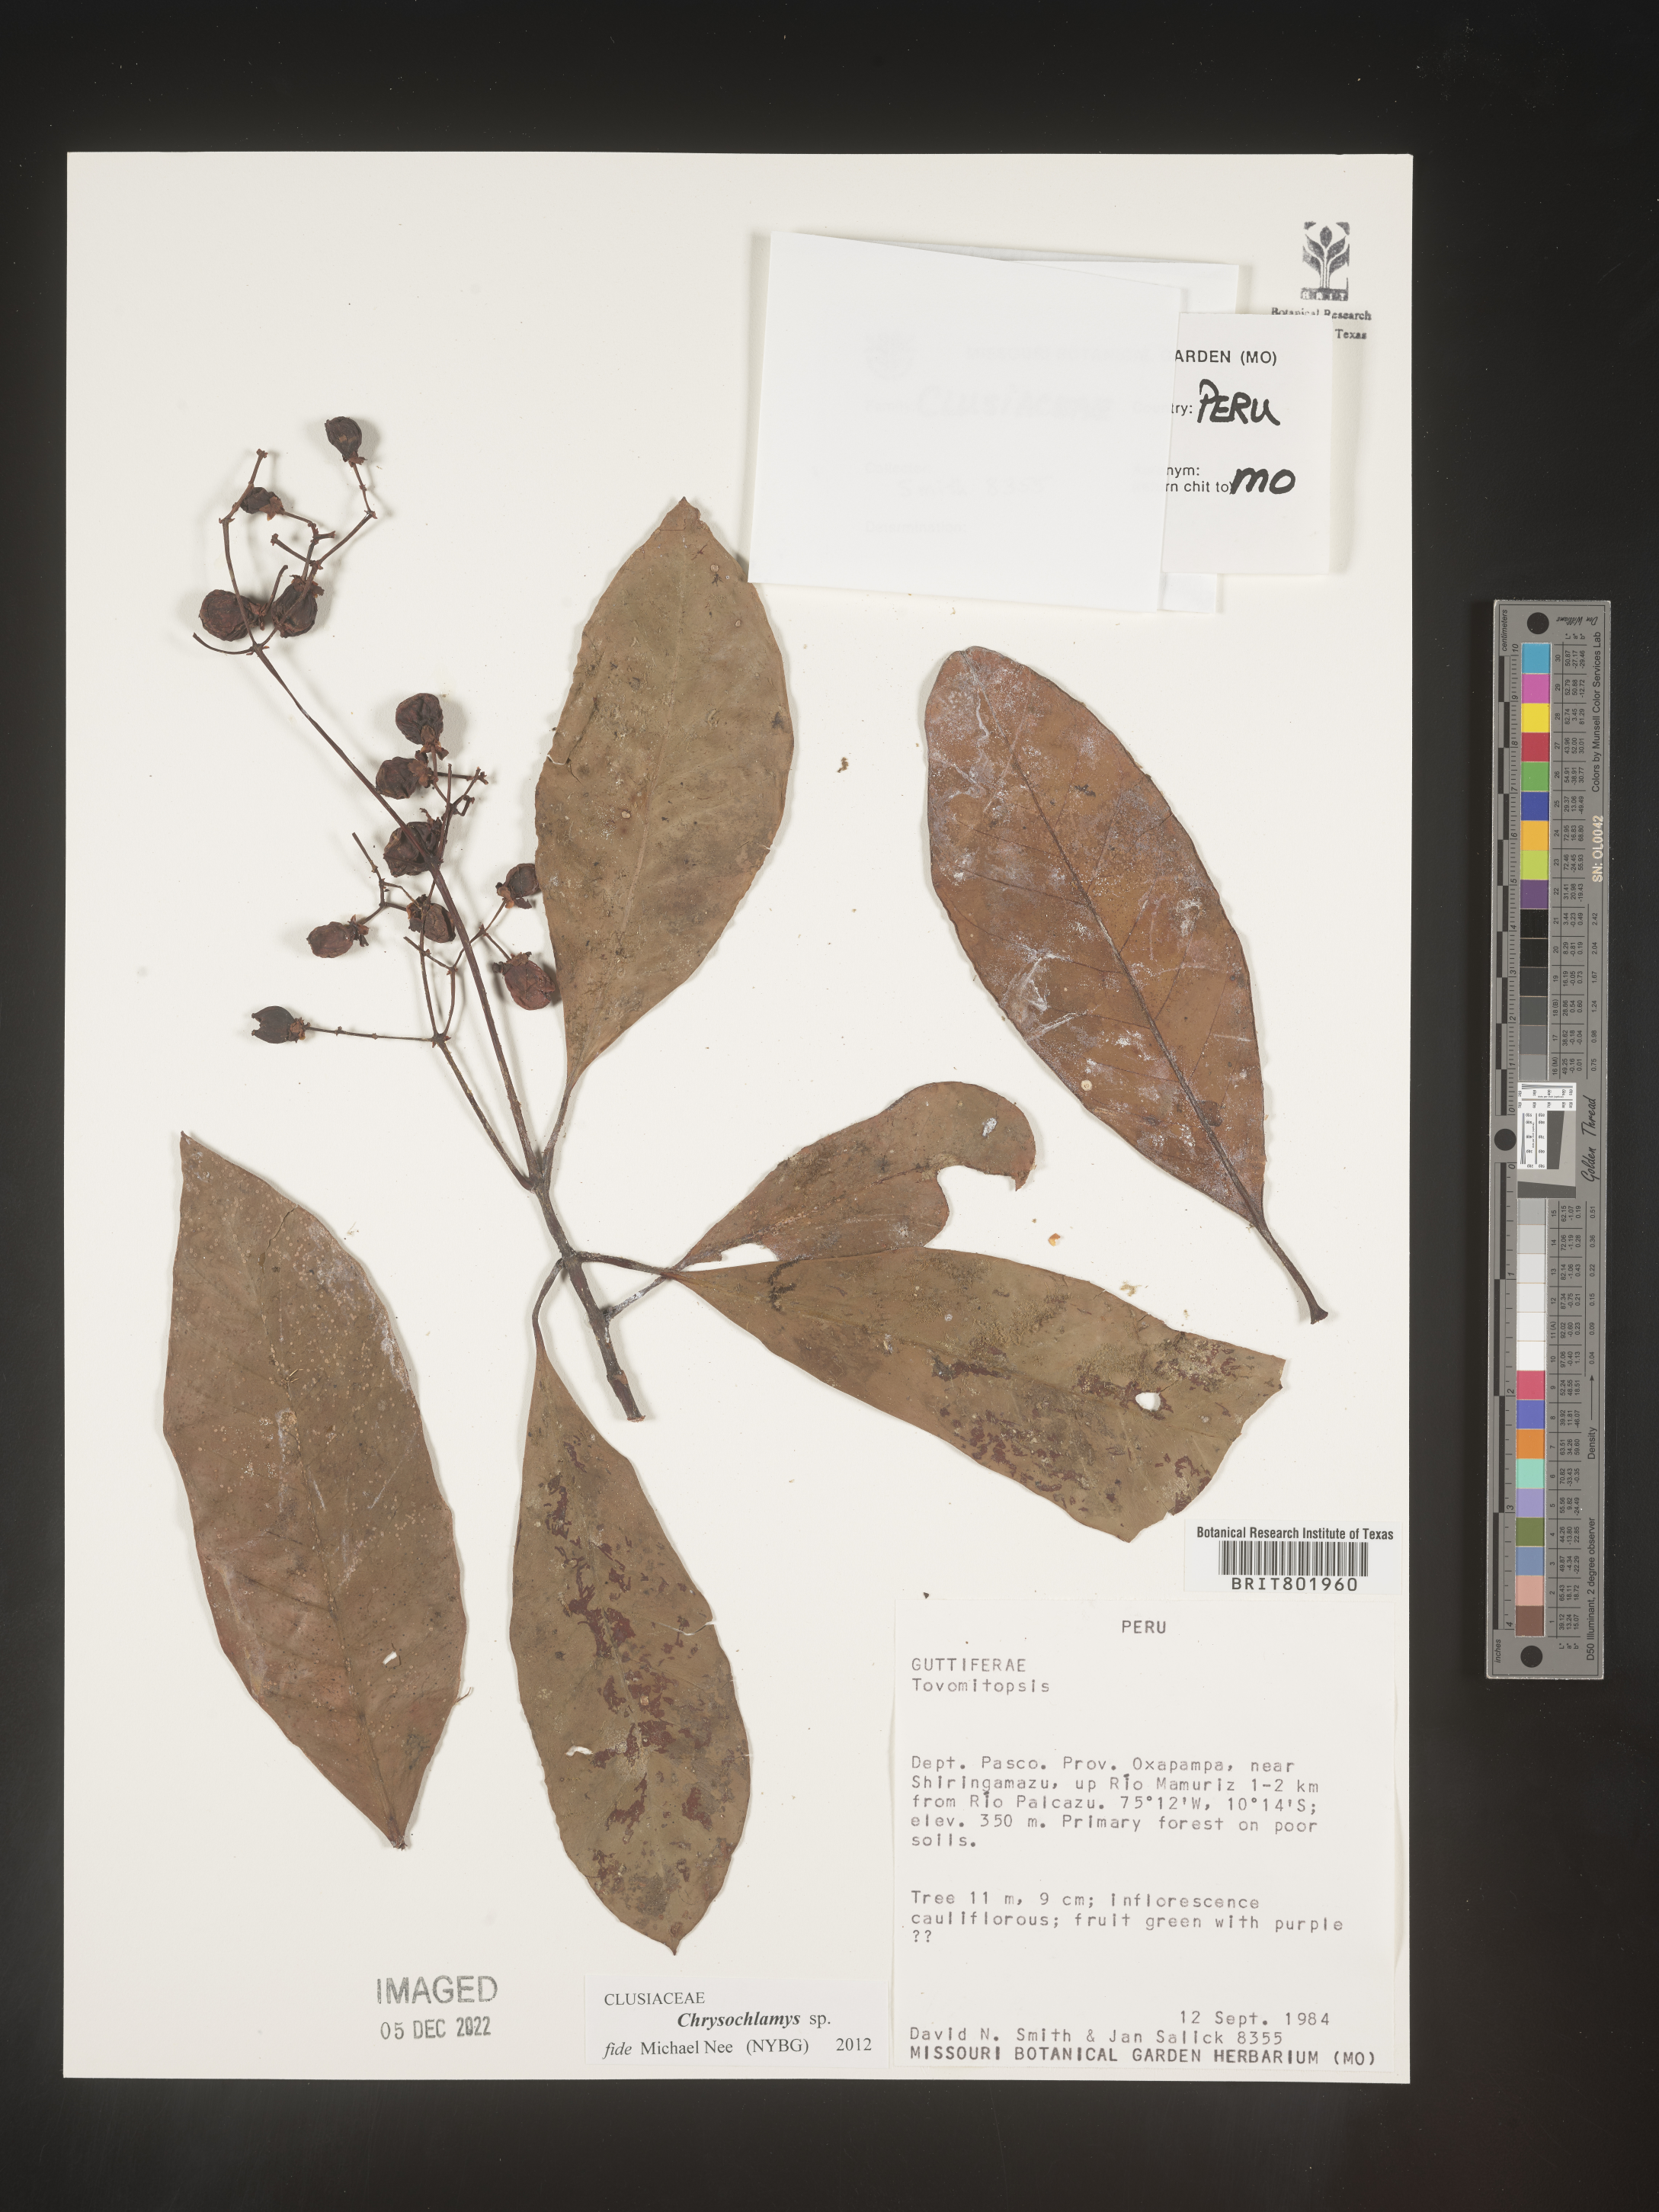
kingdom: Plantae
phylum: Tracheophyta
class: Magnoliopsida
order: Malpighiales
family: Clusiaceae
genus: Chrysochlamys
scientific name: Chrysochlamys
